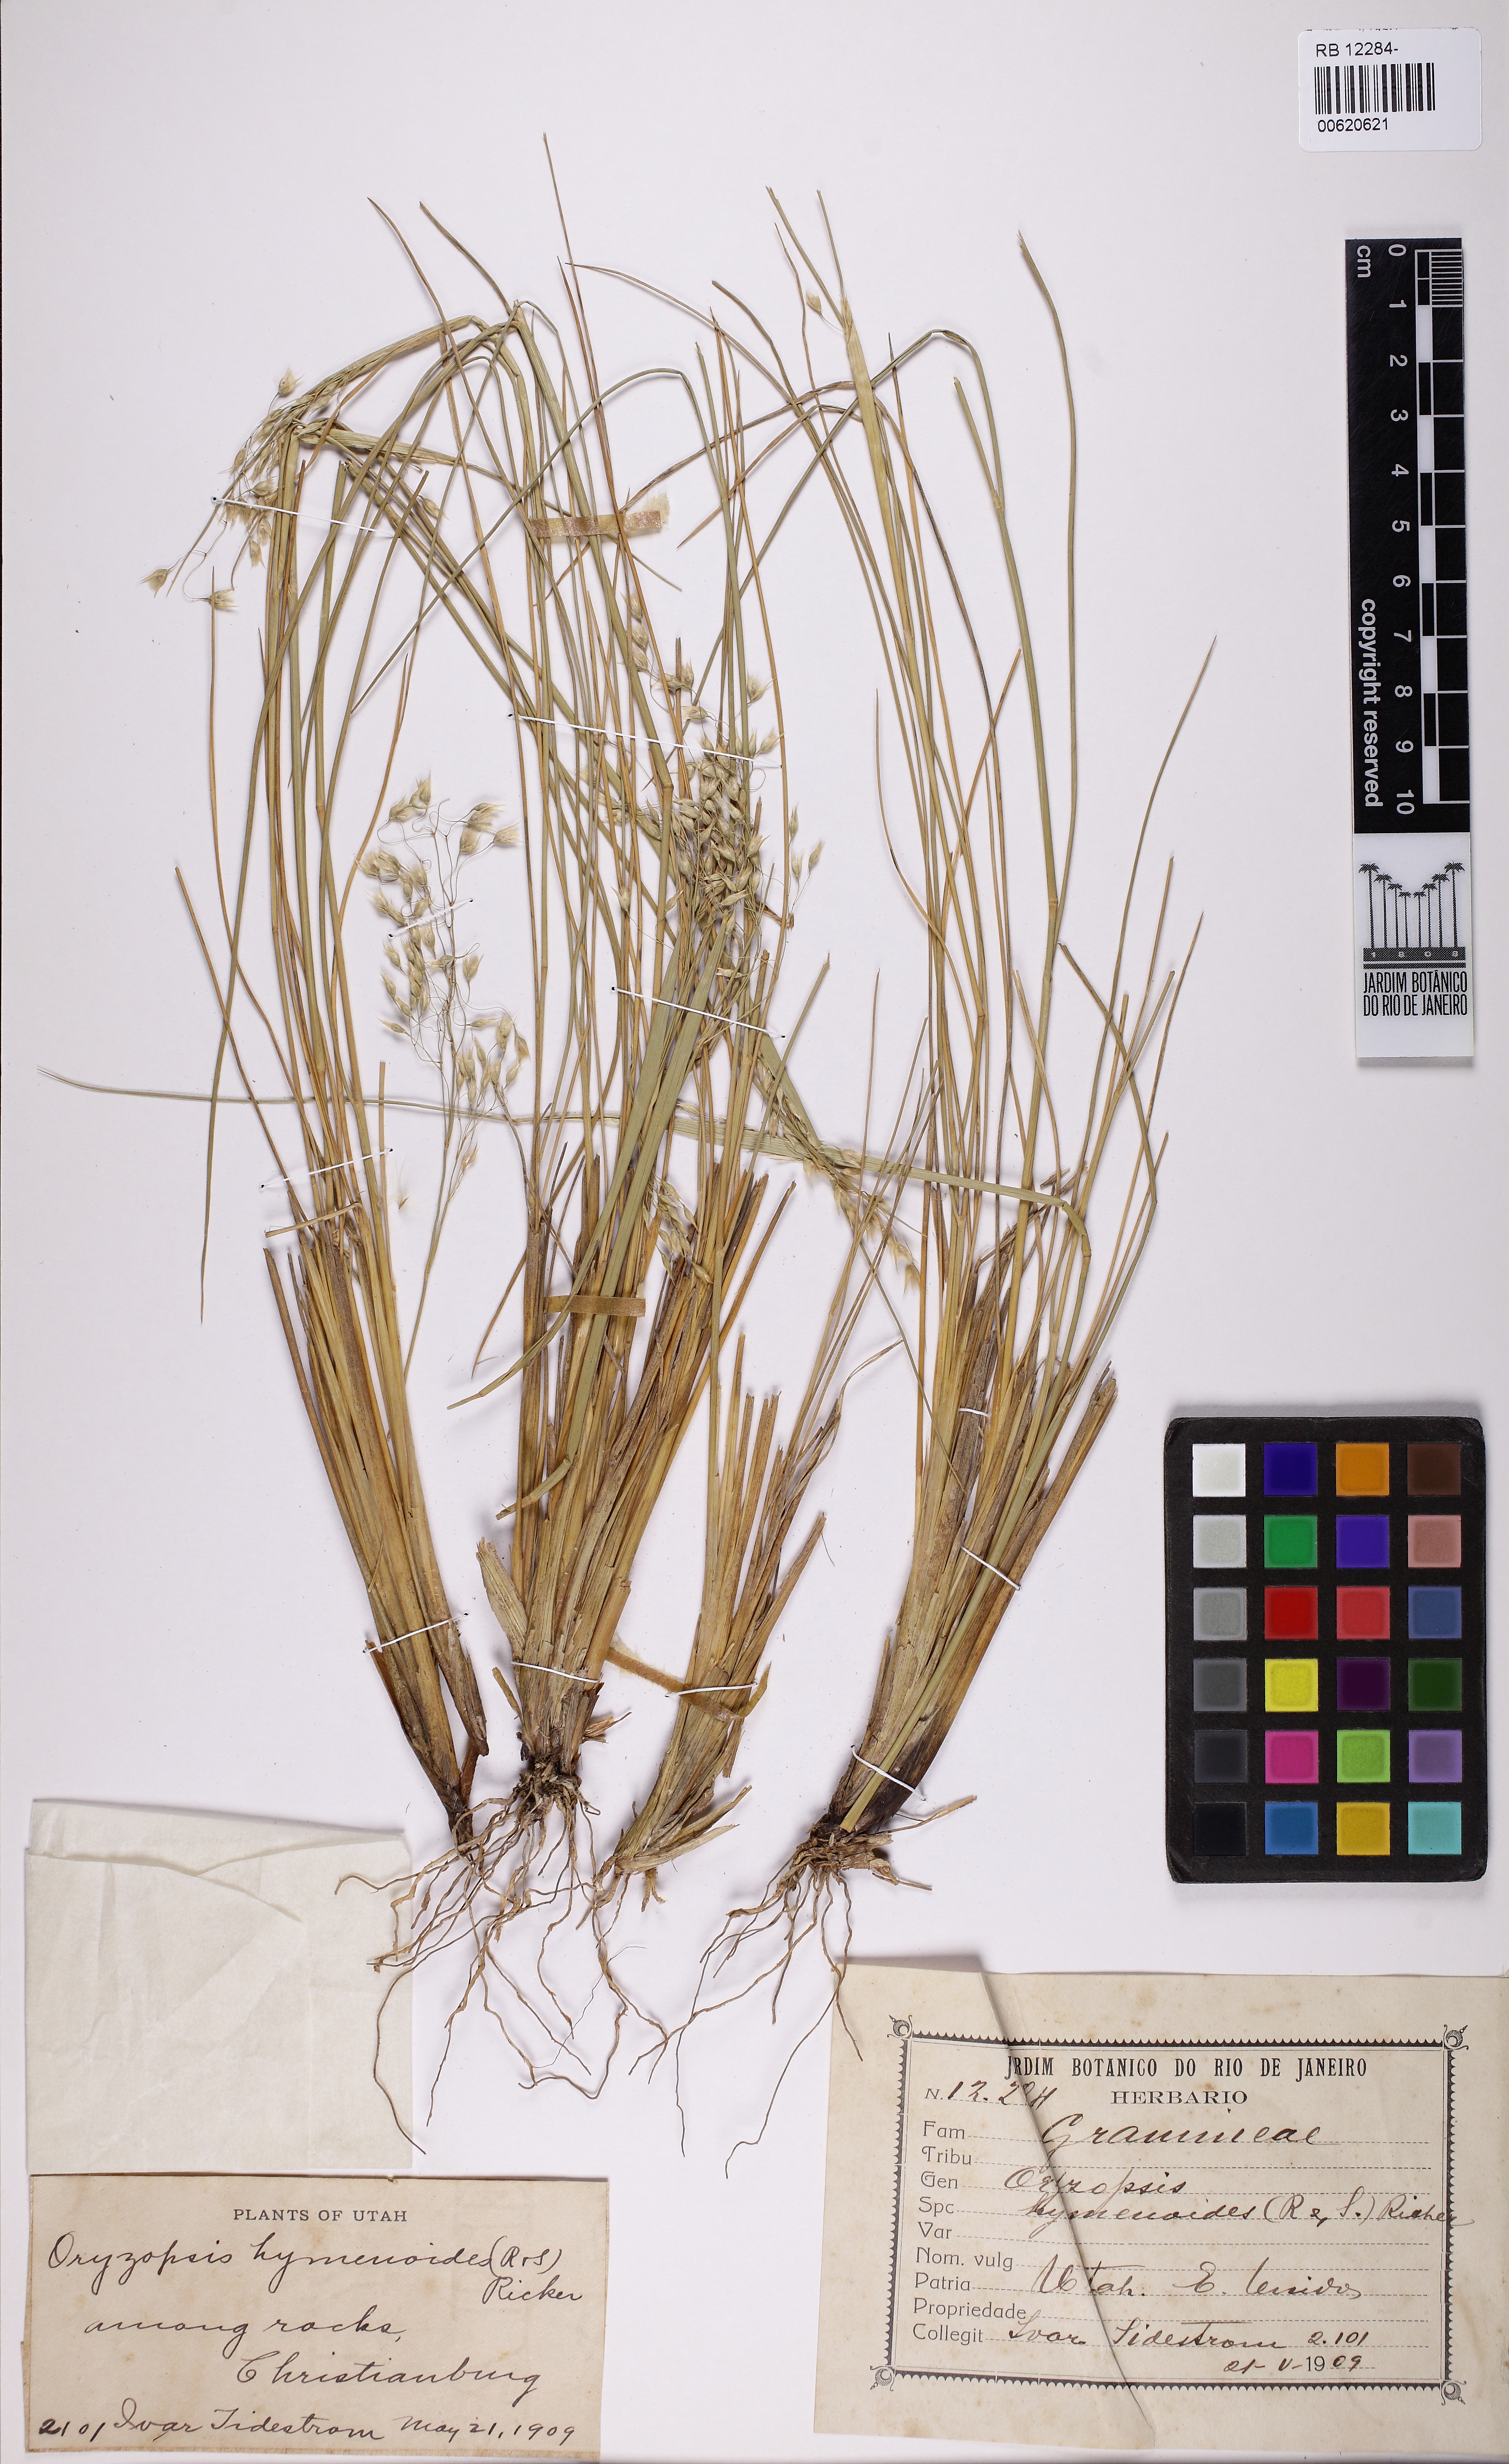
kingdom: Plantae
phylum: Tracheophyta
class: Liliopsida
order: Poales
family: Poaceae
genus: Eriocoma
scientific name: Eriocoma hymenoides
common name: Indian mountain ricegrass
